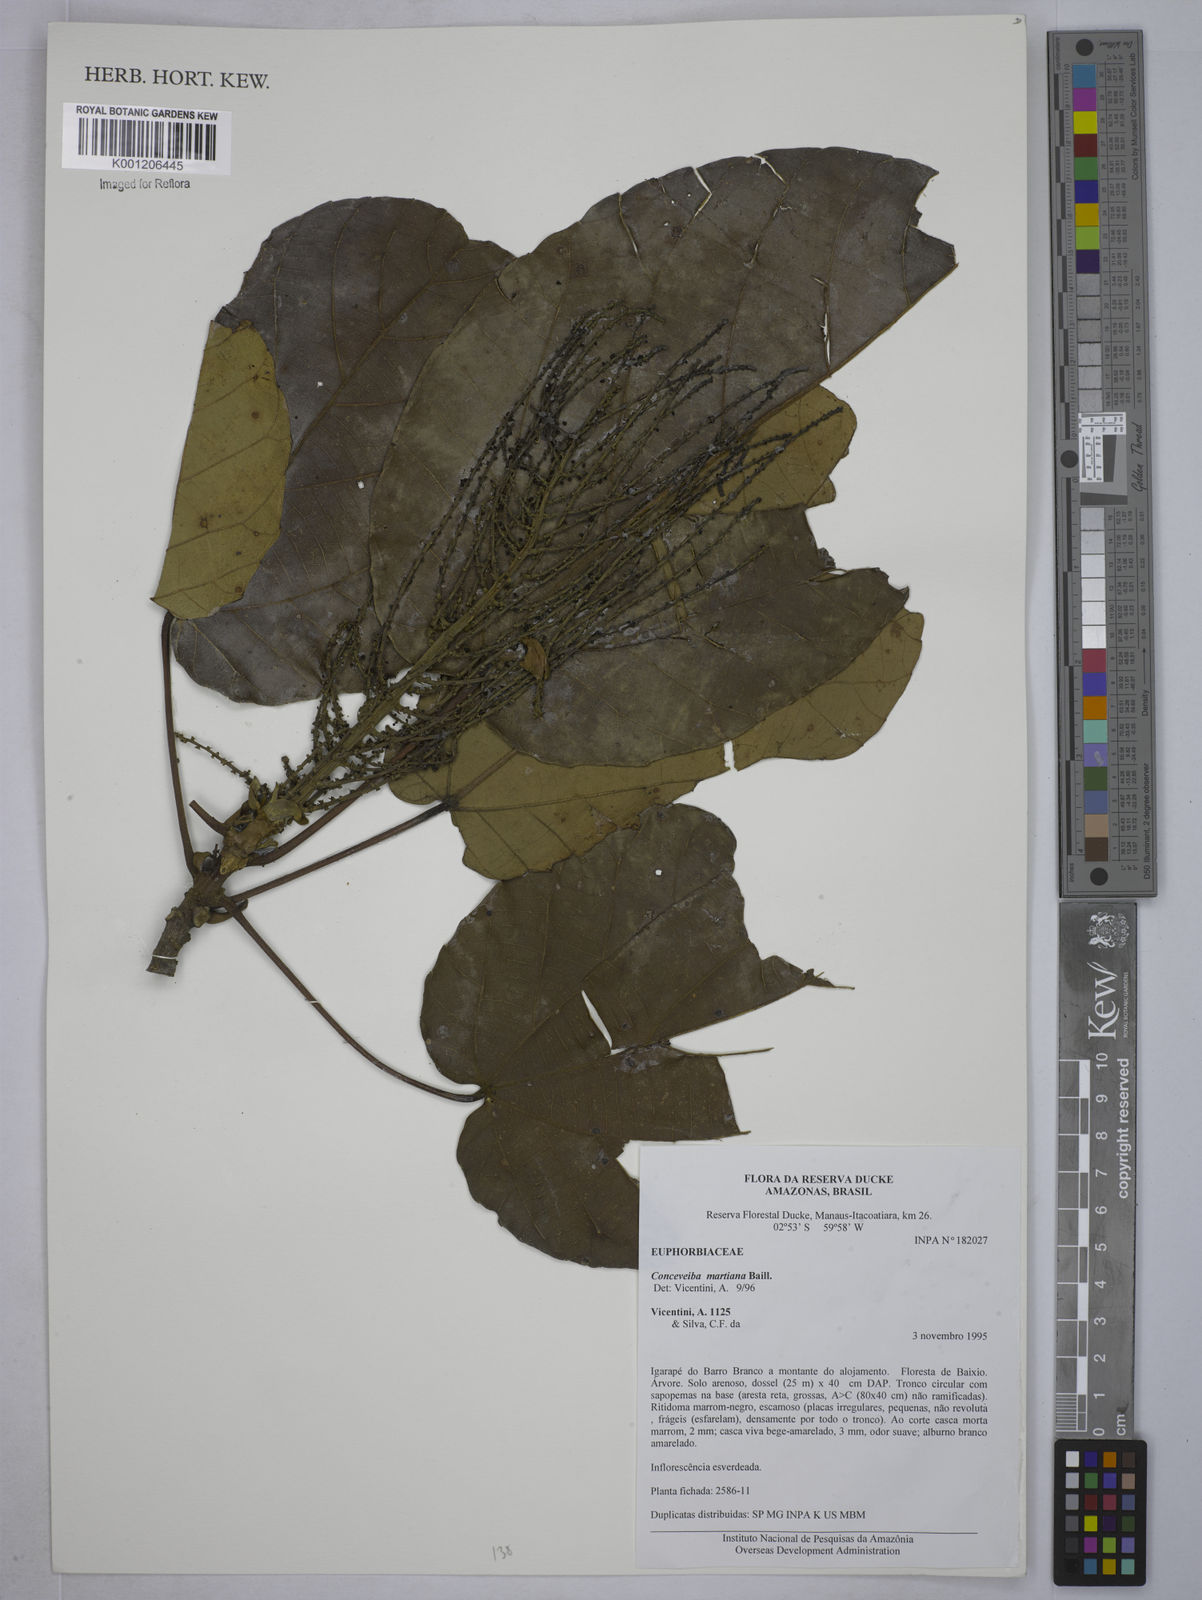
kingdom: Plantae
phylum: Tracheophyta
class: Magnoliopsida
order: Malpighiales
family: Euphorbiaceae
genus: Conceveiba
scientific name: Conceveiba martiana
